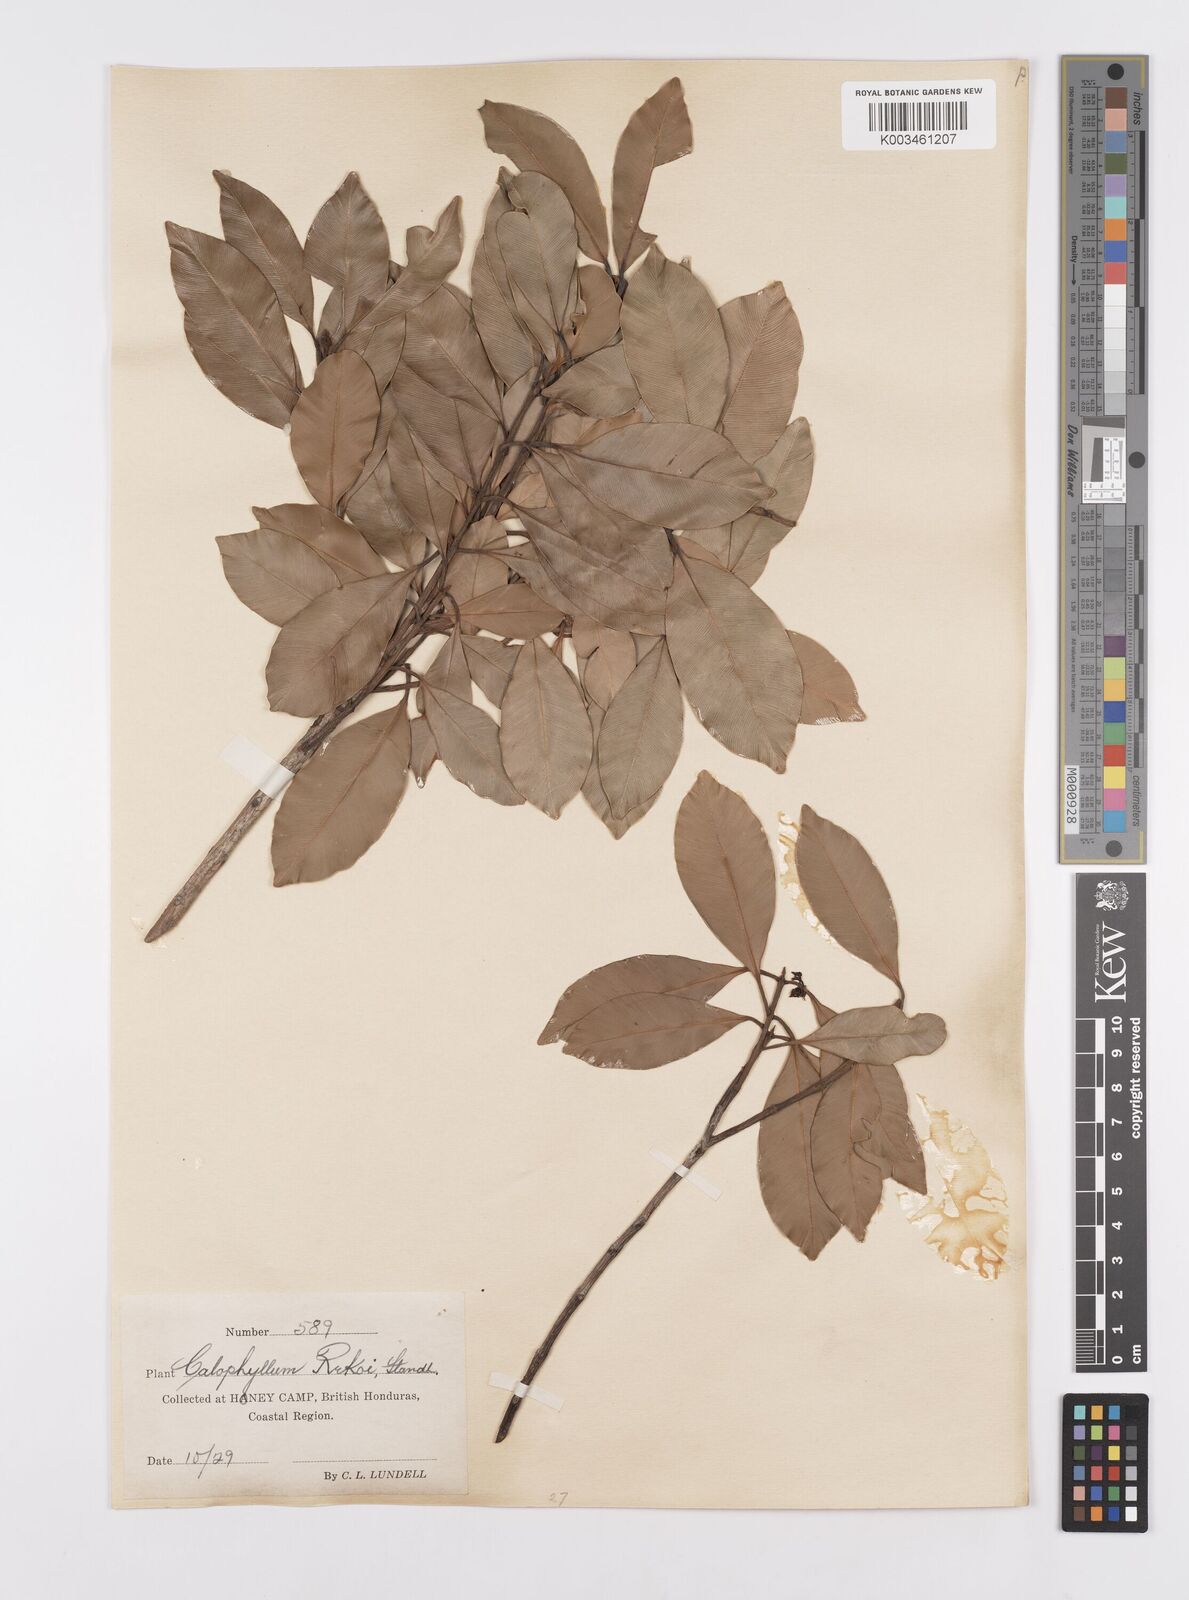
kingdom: Plantae
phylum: Tracheophyta
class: Magnoliopsida
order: Malpighiales
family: Calophyllaceae
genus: Calophyllum
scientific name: Calophyllum brasiliense
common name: Santa maria
